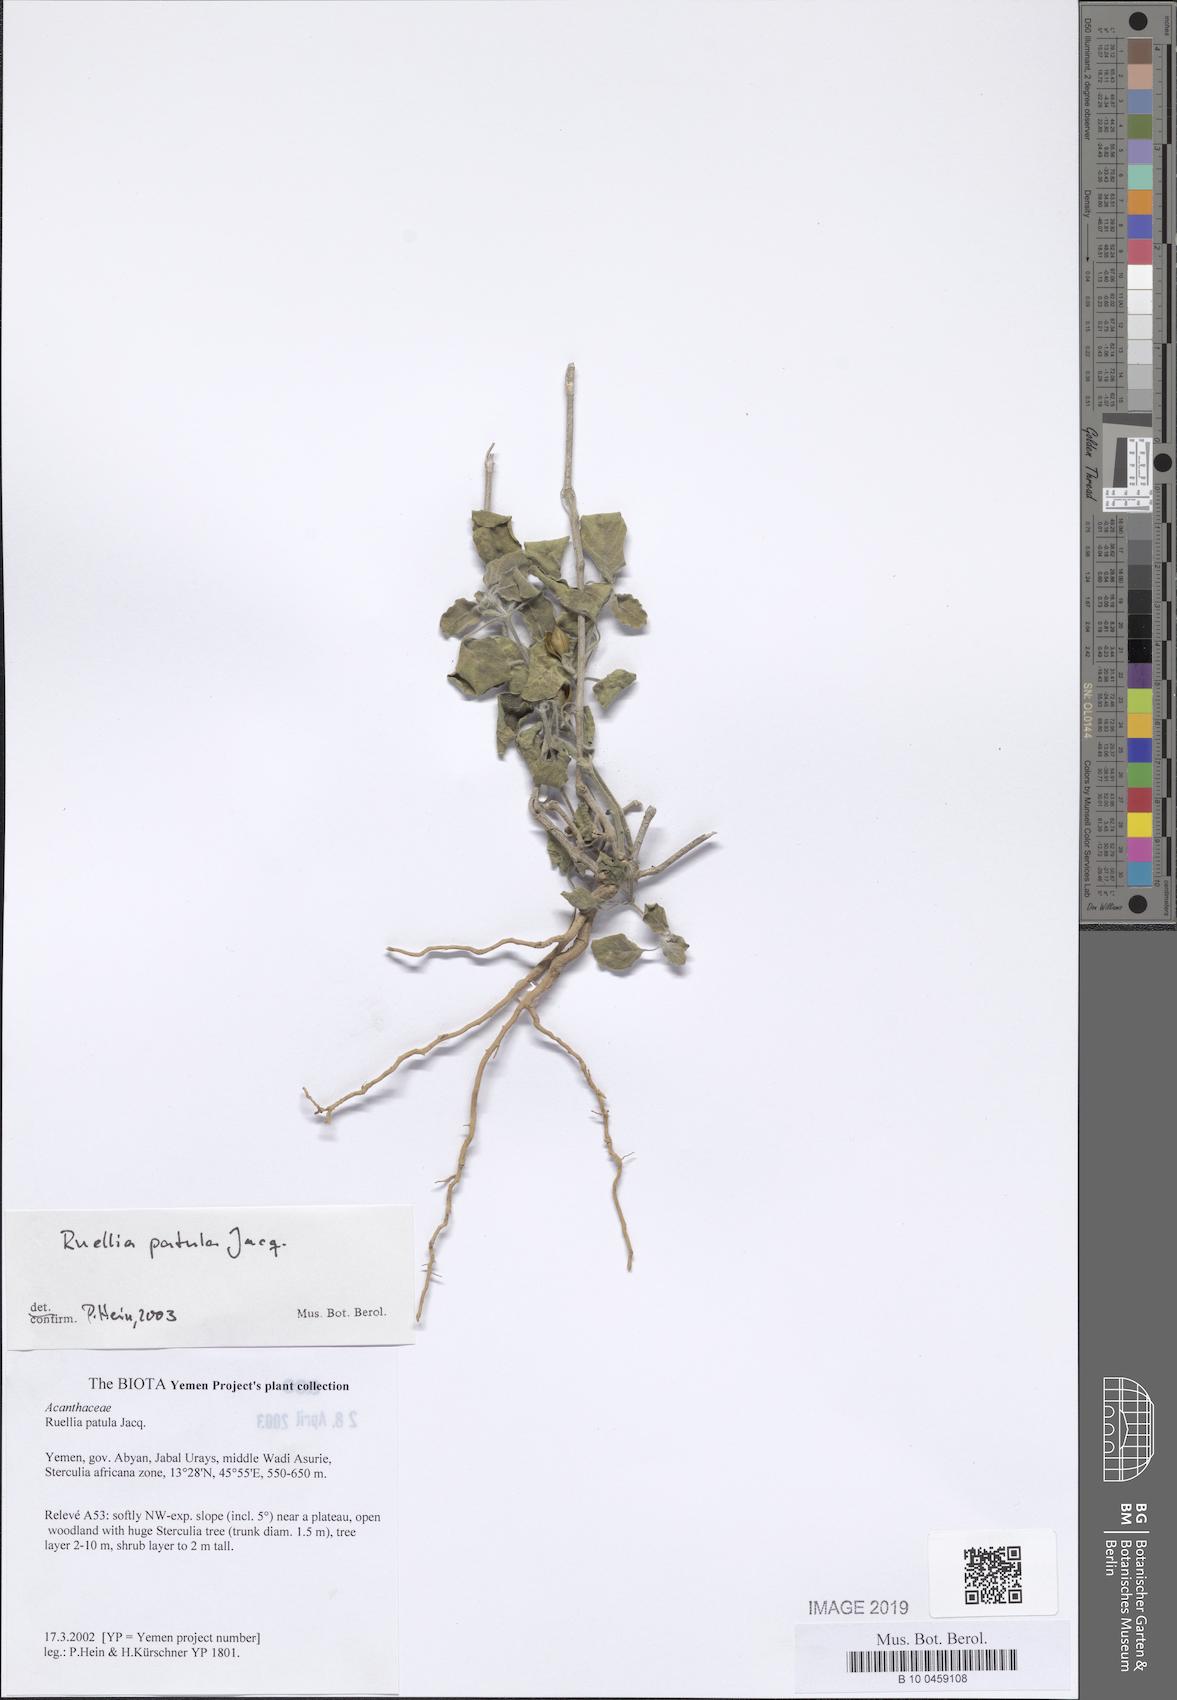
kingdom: Plantae
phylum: Tracheophyta
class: Magnoliopsida
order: Lamiales
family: Acanthaceae
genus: Ruellia
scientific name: Ruellia patula
